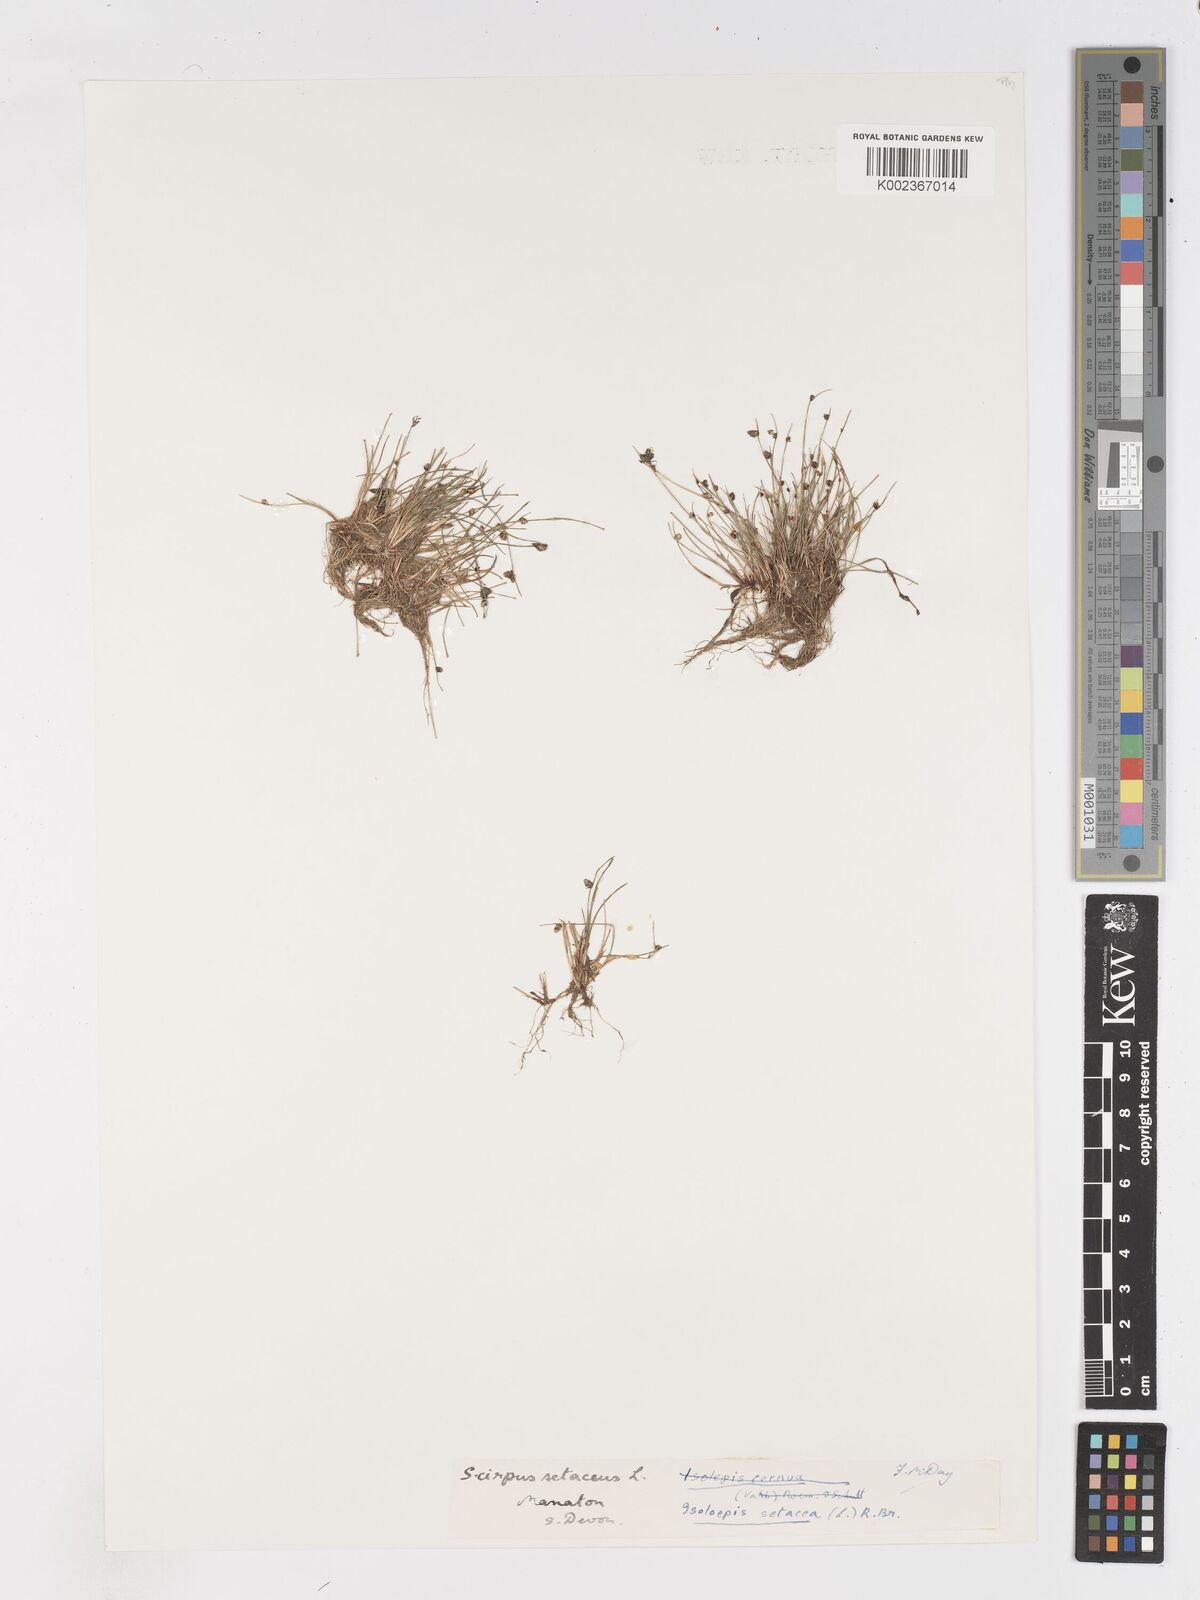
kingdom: Plantae
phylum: Tracheophyta
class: Liliopsida
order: Poales
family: Cyperaceae
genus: Isolepis
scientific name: Isolepis setacea
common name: Bristle club-rush
